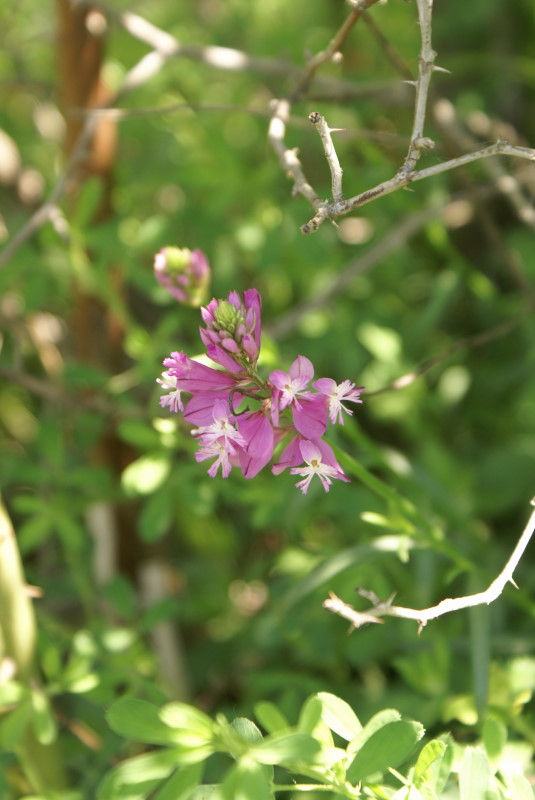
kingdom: Plantae
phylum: Tracheophyta
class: Magnoliopsida
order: Fabales
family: Polygalaceae
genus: Polygala
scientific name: Polygala major
